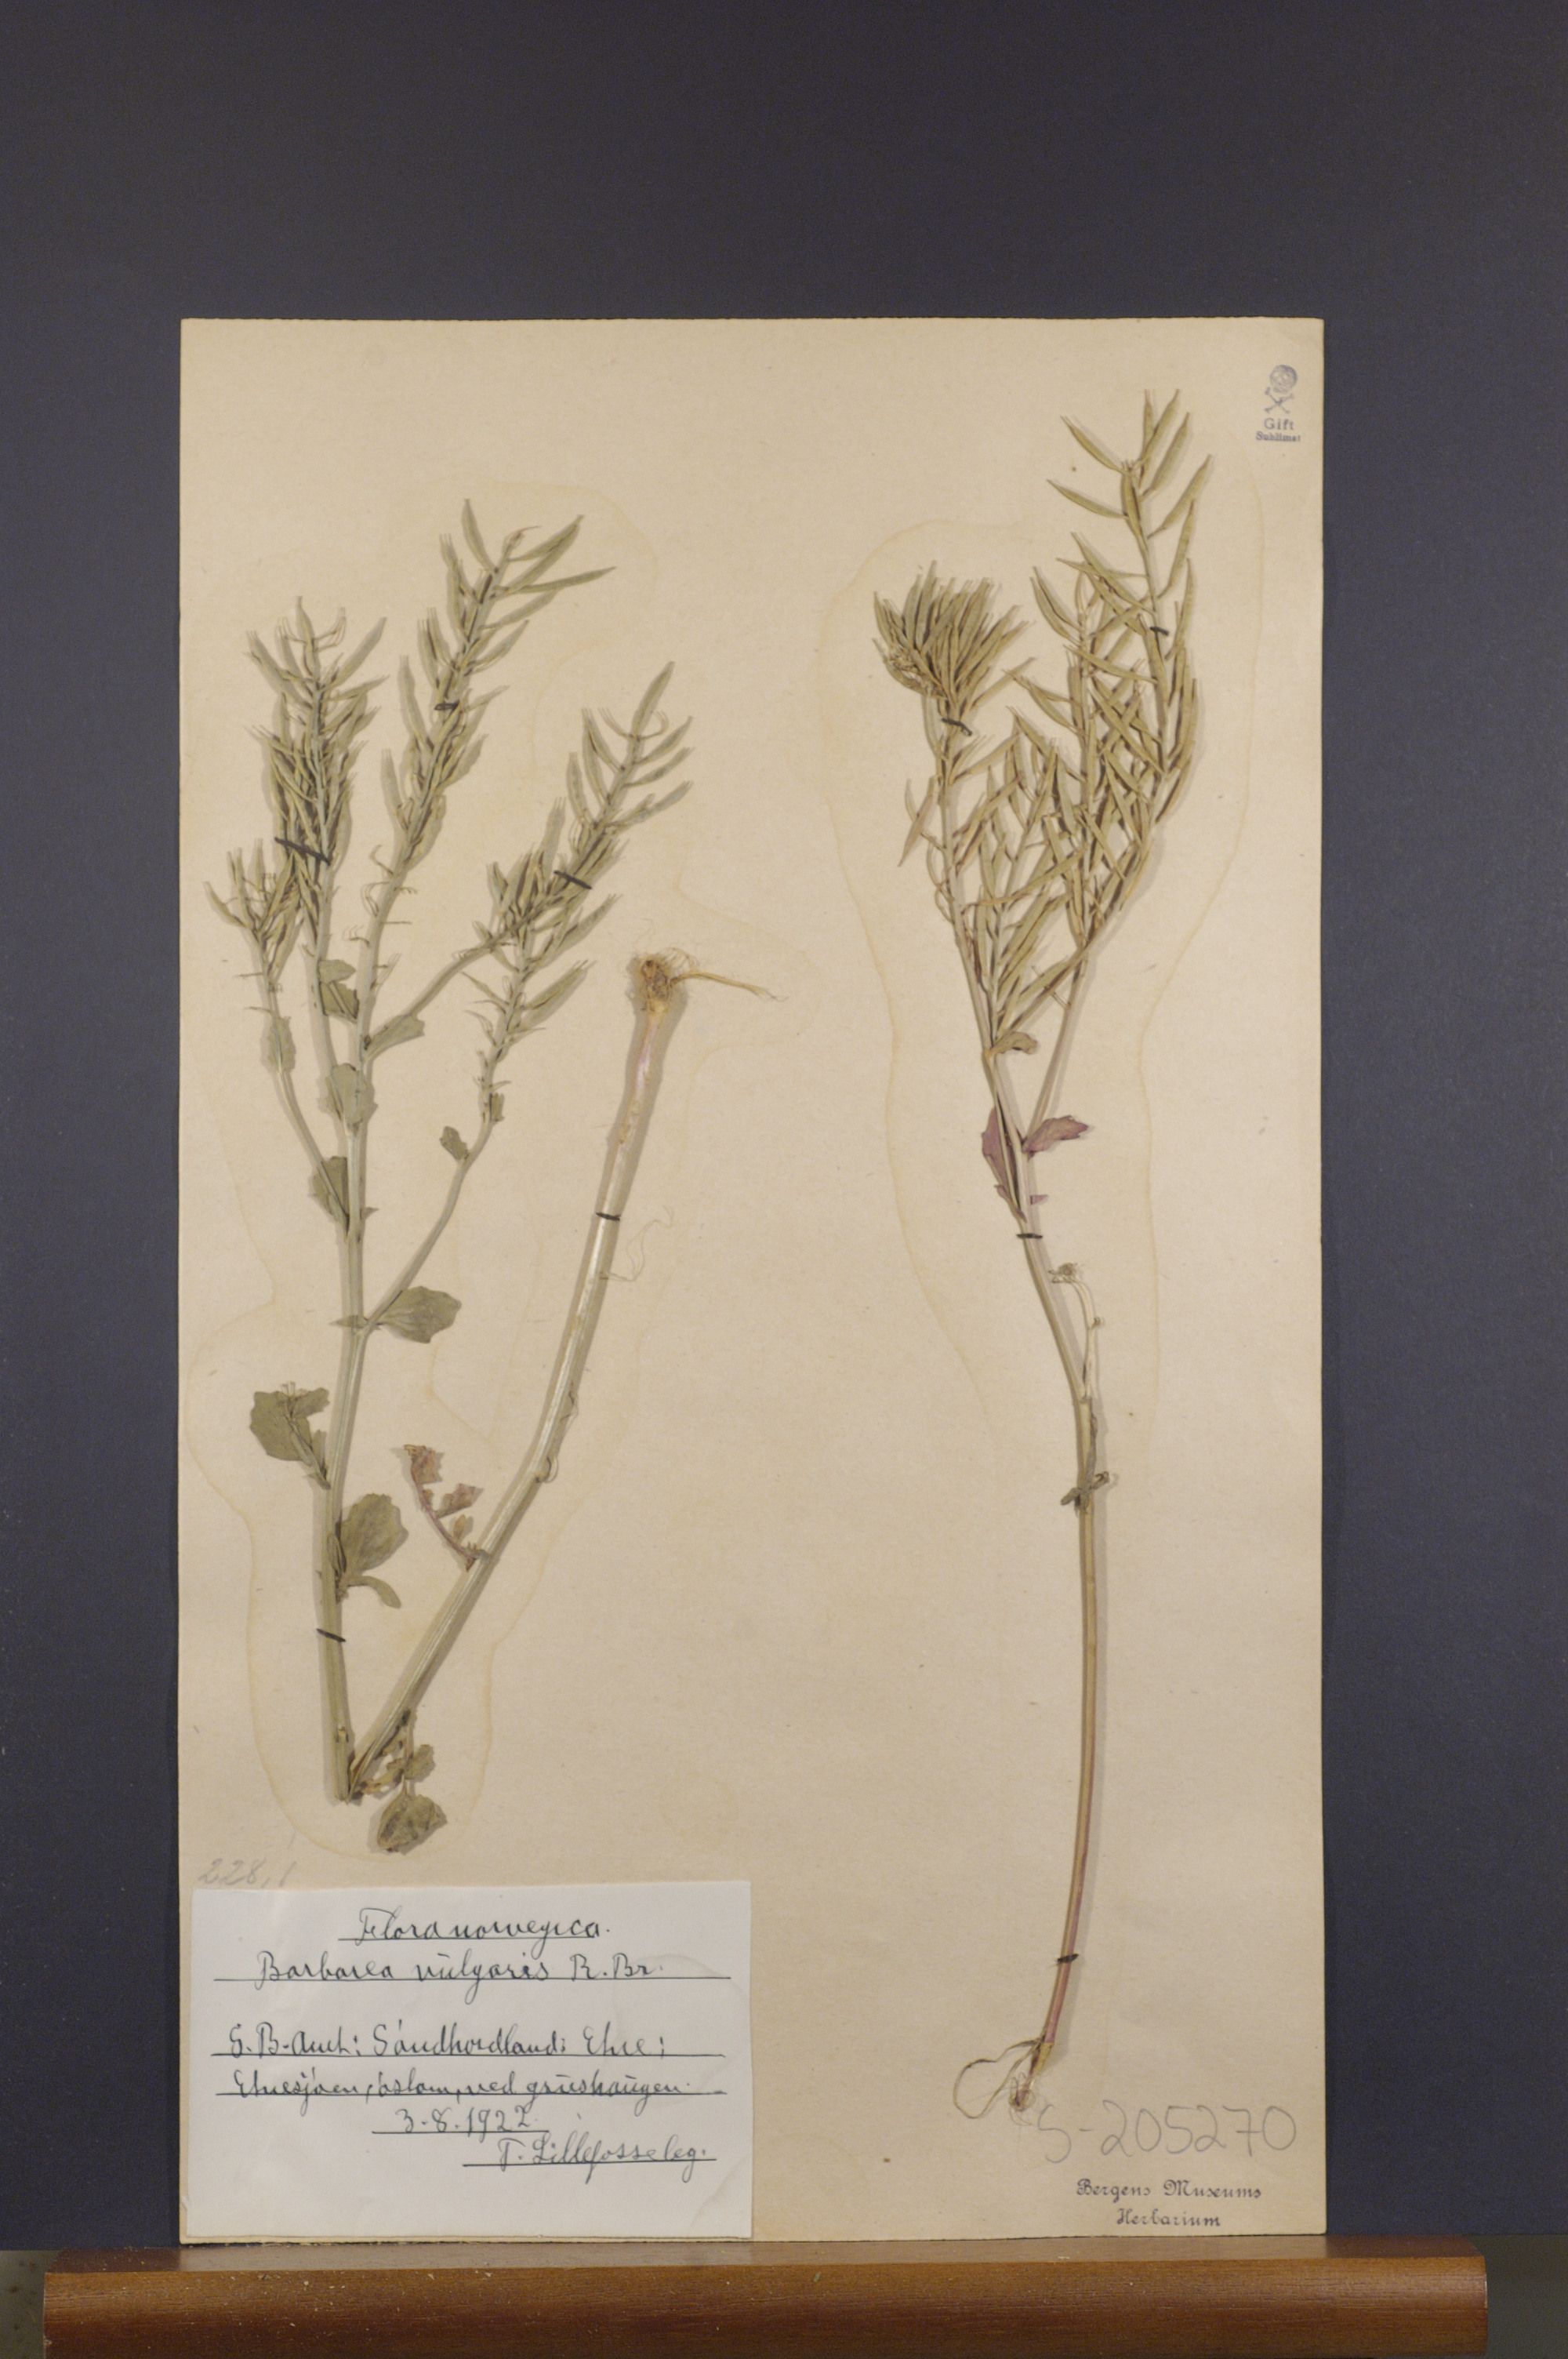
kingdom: Plantae
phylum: Tracheophyta
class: Magnoliopsida
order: Brassicales
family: Brassicaceae
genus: Barbarea
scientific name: Barbarea vulgaris
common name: Cressy-greens
